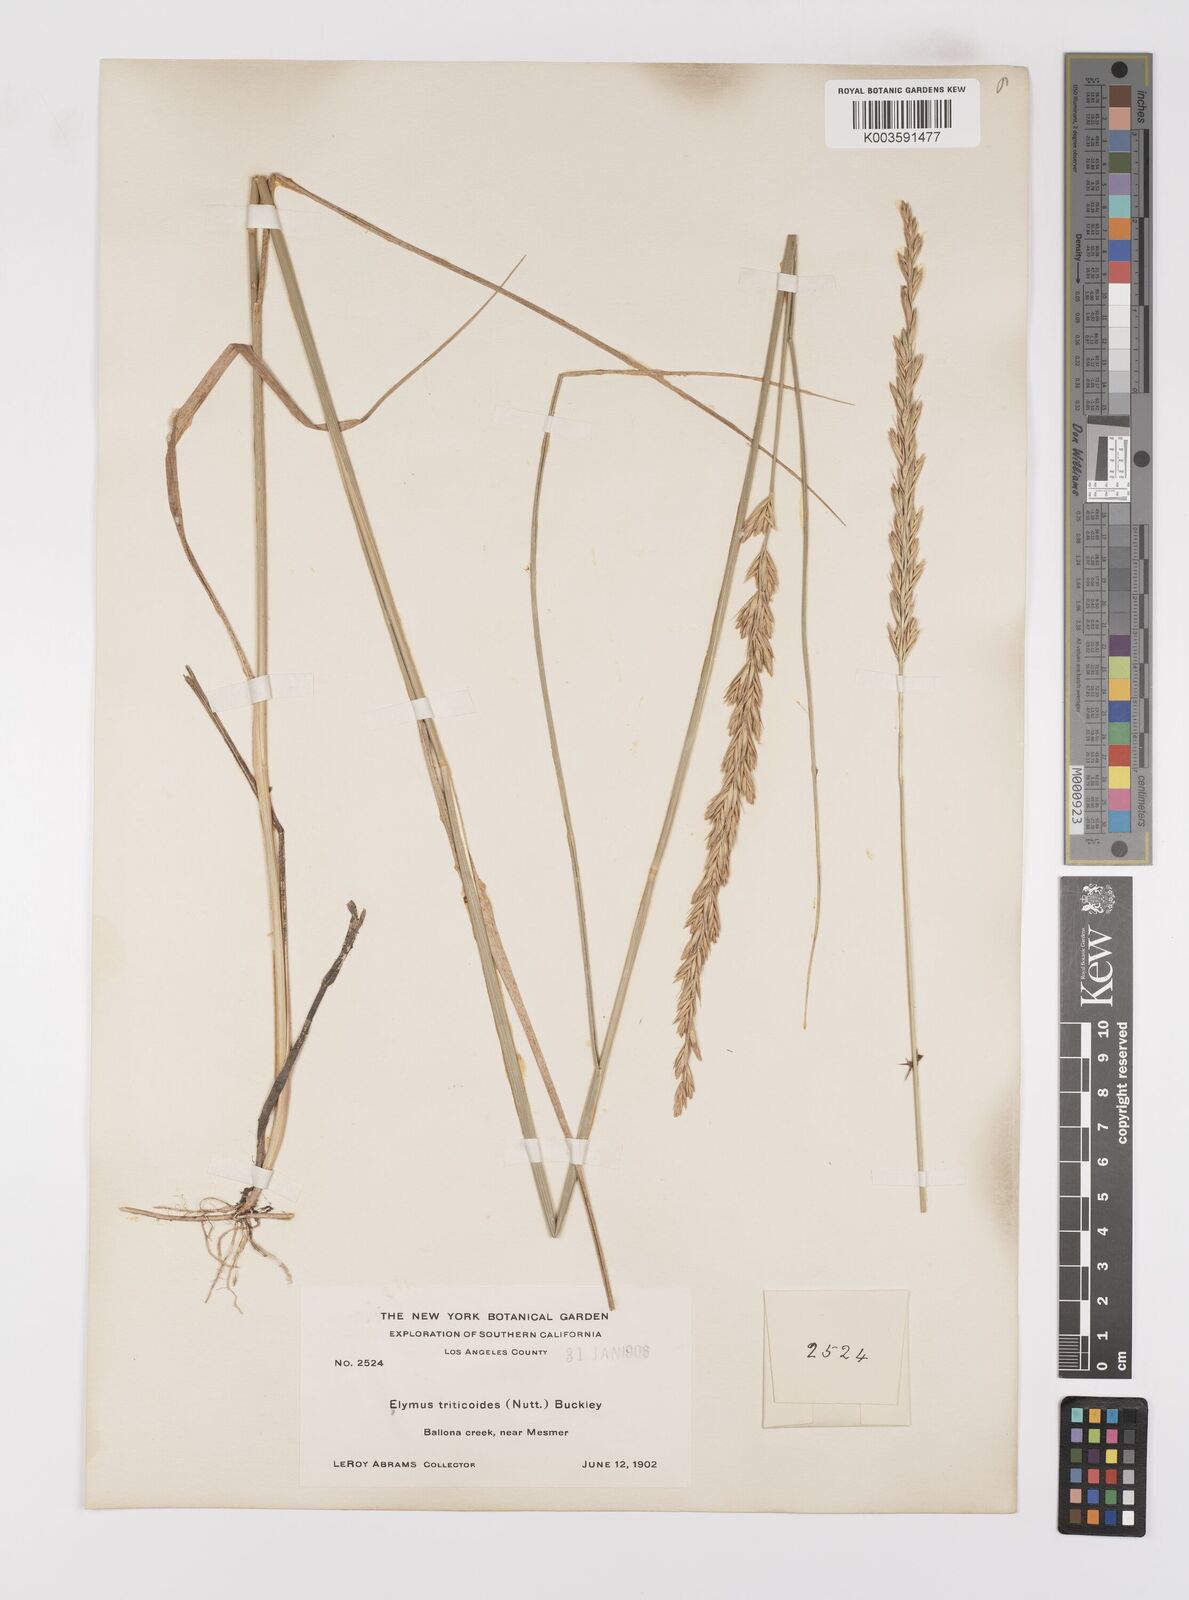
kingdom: Plantae
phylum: Tracheophyta
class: Liliopsida
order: Poales
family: Poaceae
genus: Leymus
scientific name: Leymus triticoides
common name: Beardless wild rye
